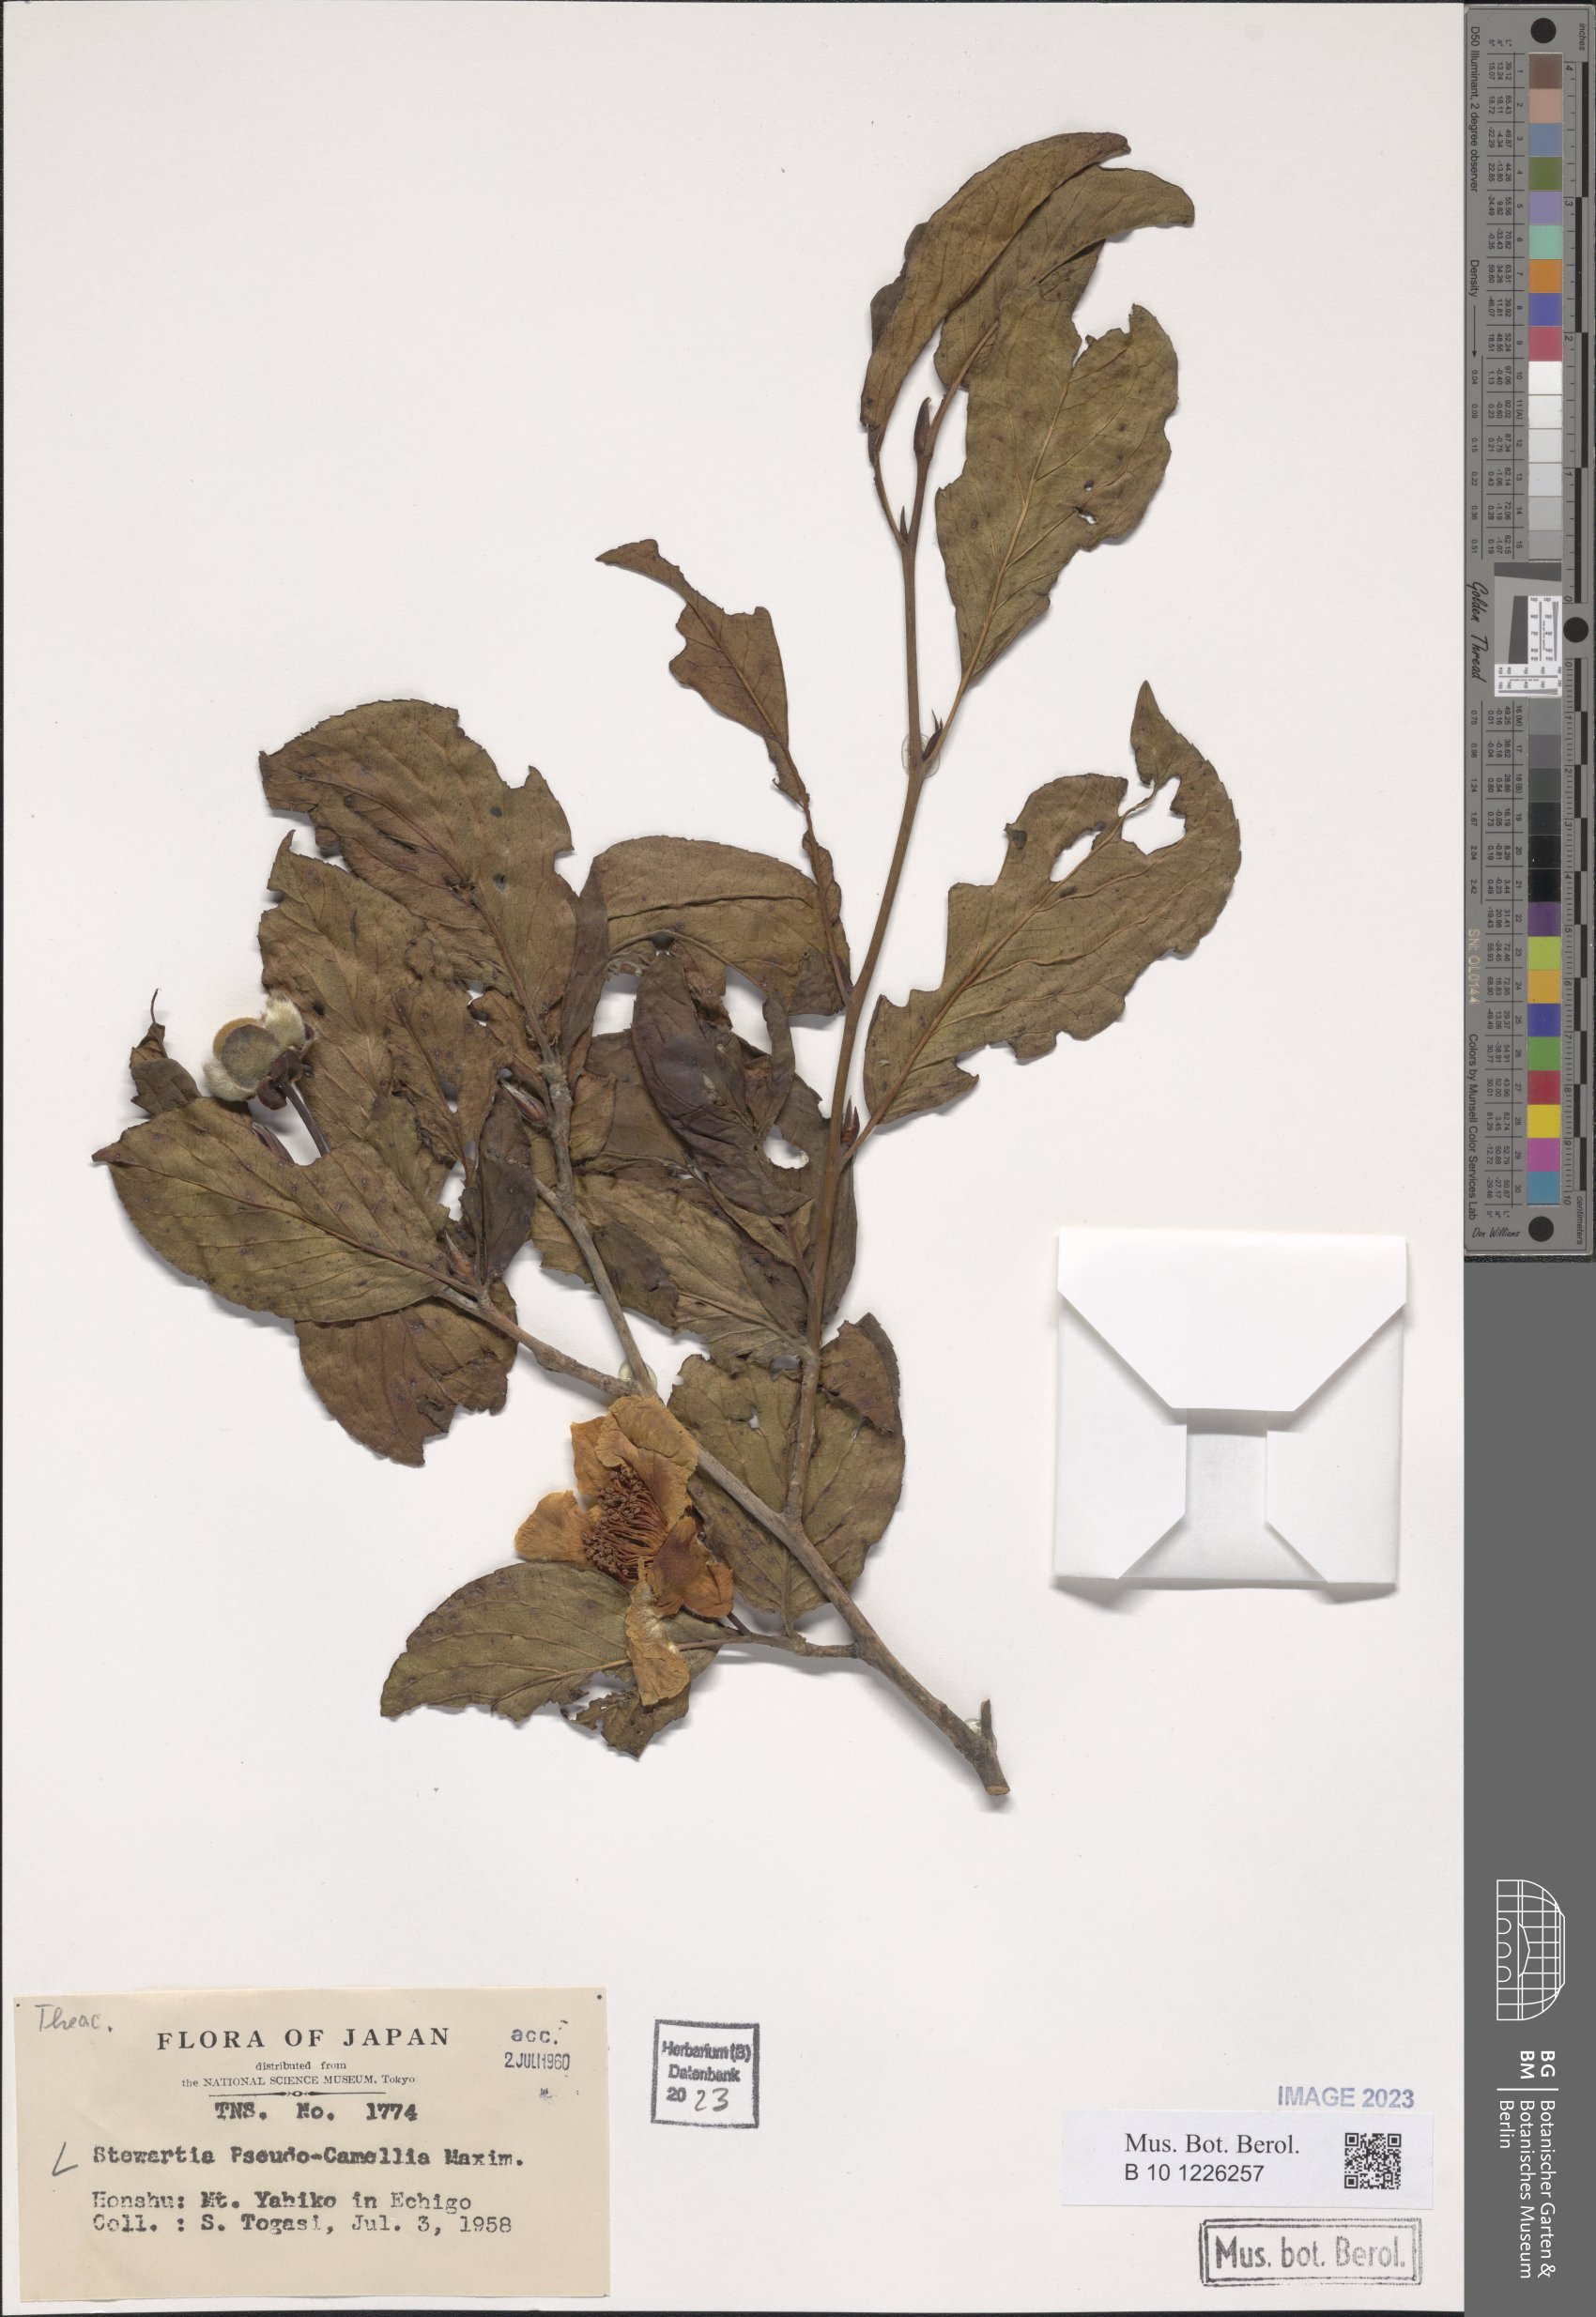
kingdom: Plantae
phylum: Tracheophyta
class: Magnoliopsida
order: Ericales
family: Theaceae
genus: Stewartia
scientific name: Stewartia pseudocamellia
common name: Japanese stewartia
